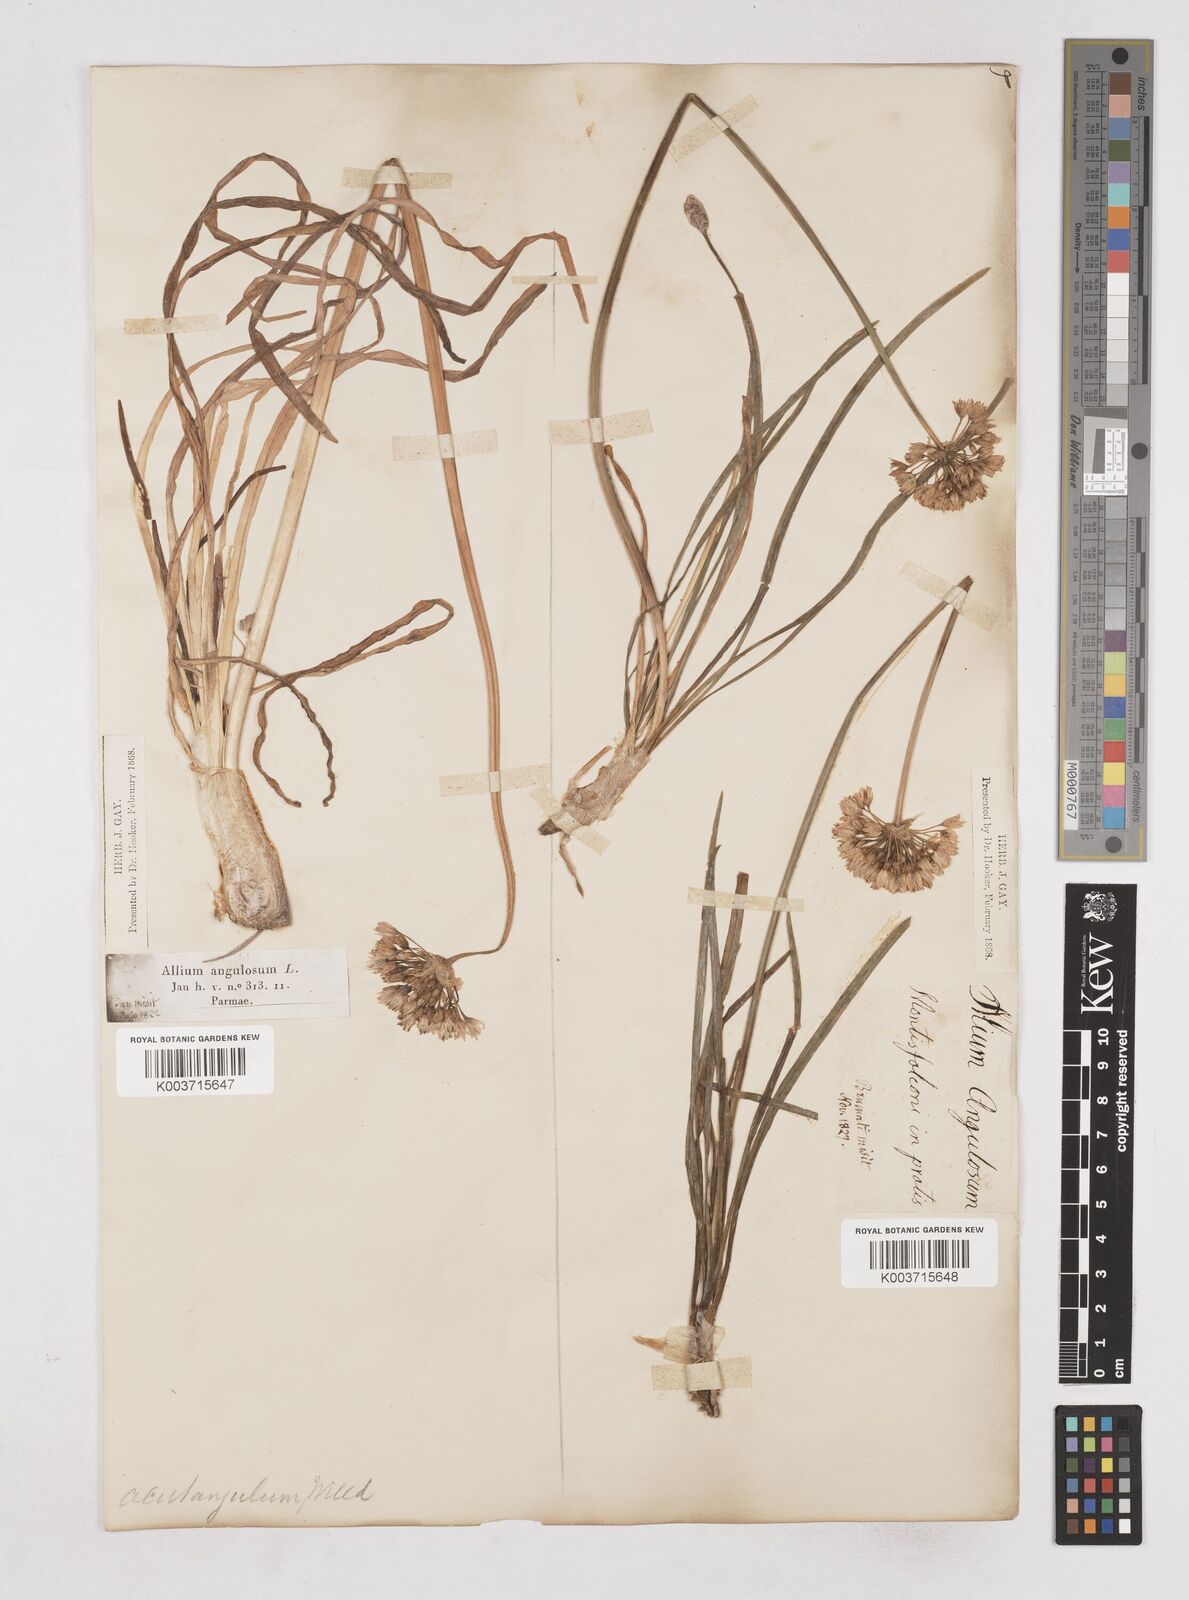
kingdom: Plantae
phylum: Tracheophyta
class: Liliopsida
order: Asparagales
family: Amaryllidaceae
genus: Allium
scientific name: Allium angulosum
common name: Mouse garlic
